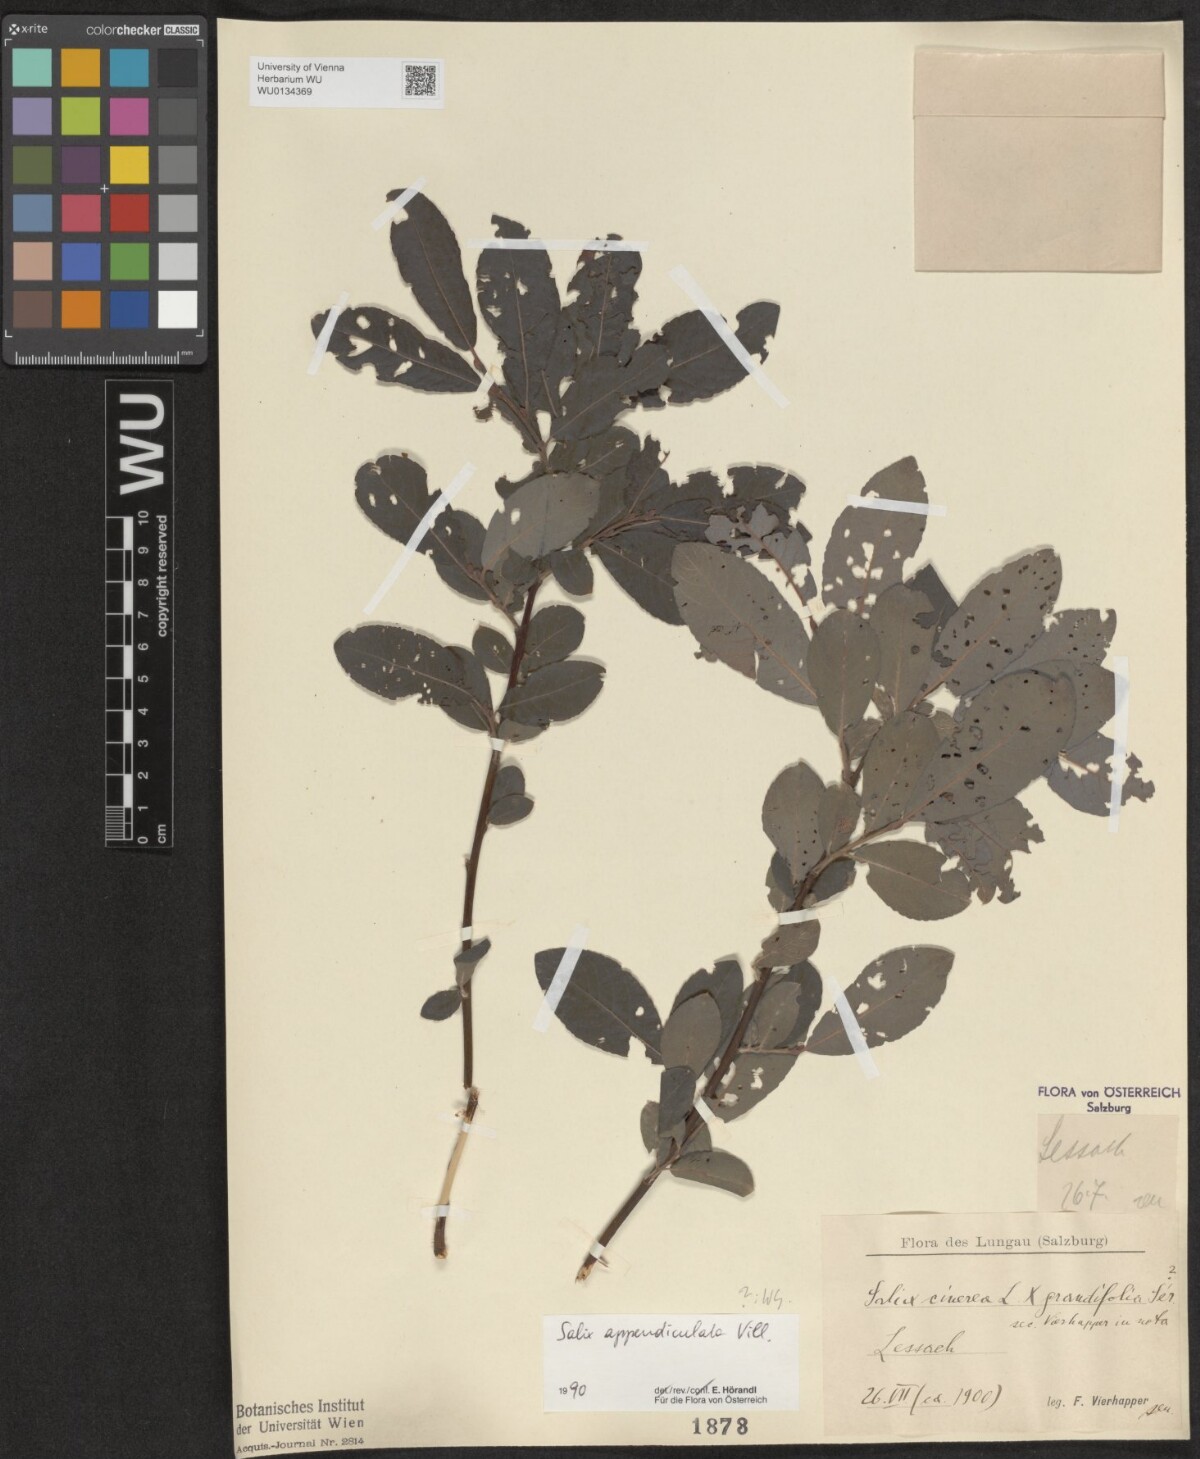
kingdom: Plantae
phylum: Tracheophyta
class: Magnoliopsida
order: Malpighiales
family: Salicaceae
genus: Salix
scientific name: Salix appendiculata
